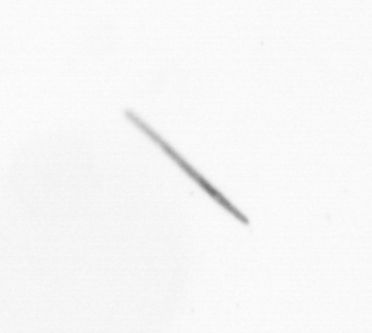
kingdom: Chromista
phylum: Ochrophyta
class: Bacillariophyceae
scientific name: Bacillariophyceae
